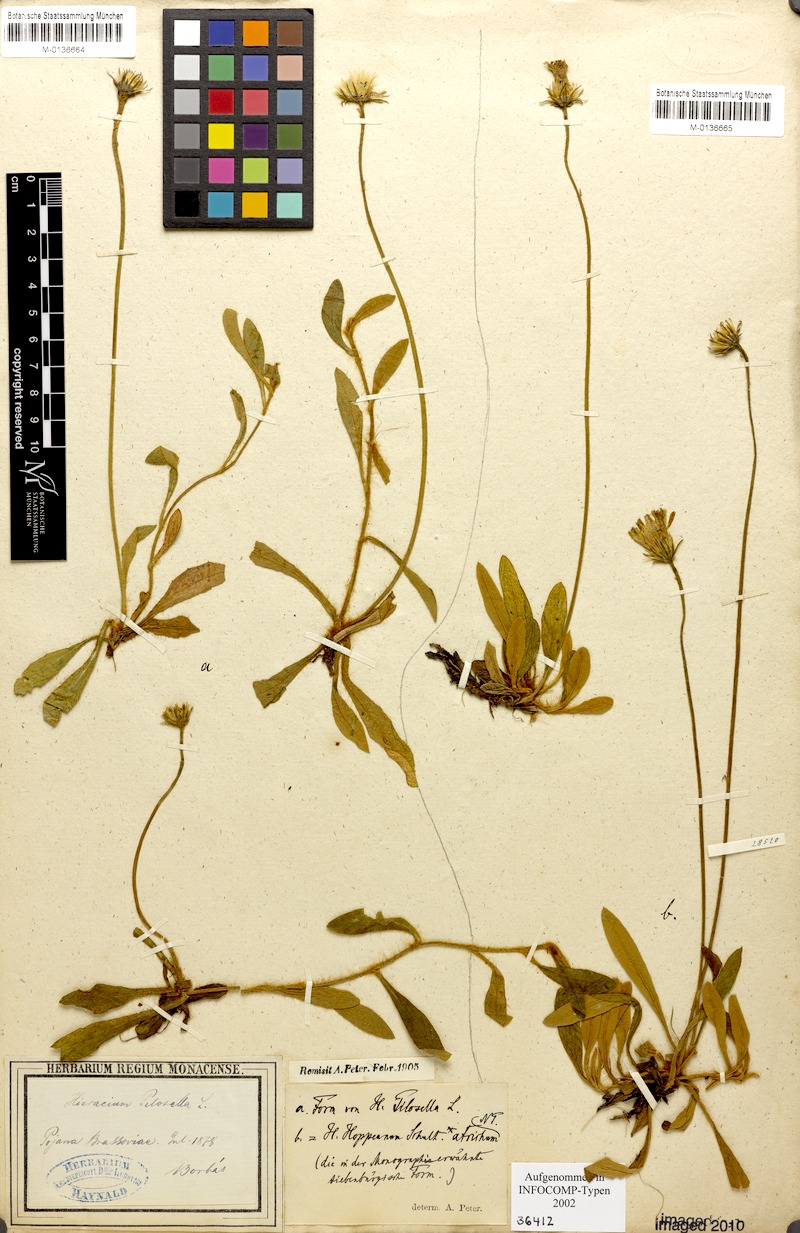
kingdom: Plantae
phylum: Tracheophyta
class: Magnoliopsida
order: Asterales
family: Asteraceae
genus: Pilosella
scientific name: Pilosella leucopsilon
